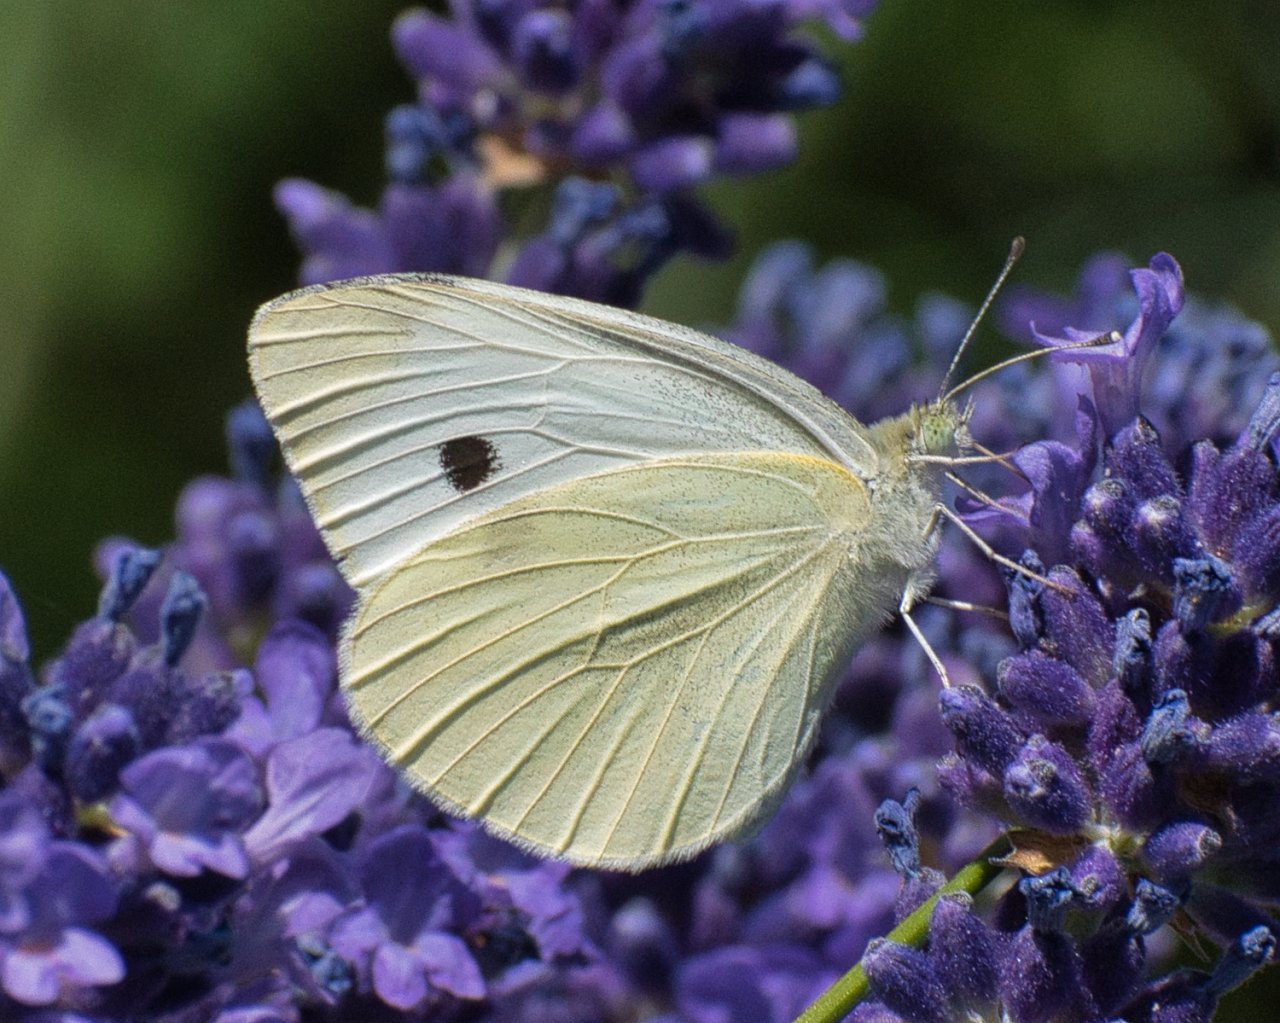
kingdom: Animalia
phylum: Arthropoda
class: Insecta
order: Lepidoptera
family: Pieridae
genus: Pieris
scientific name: Pieris rapae
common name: Cabbage White
